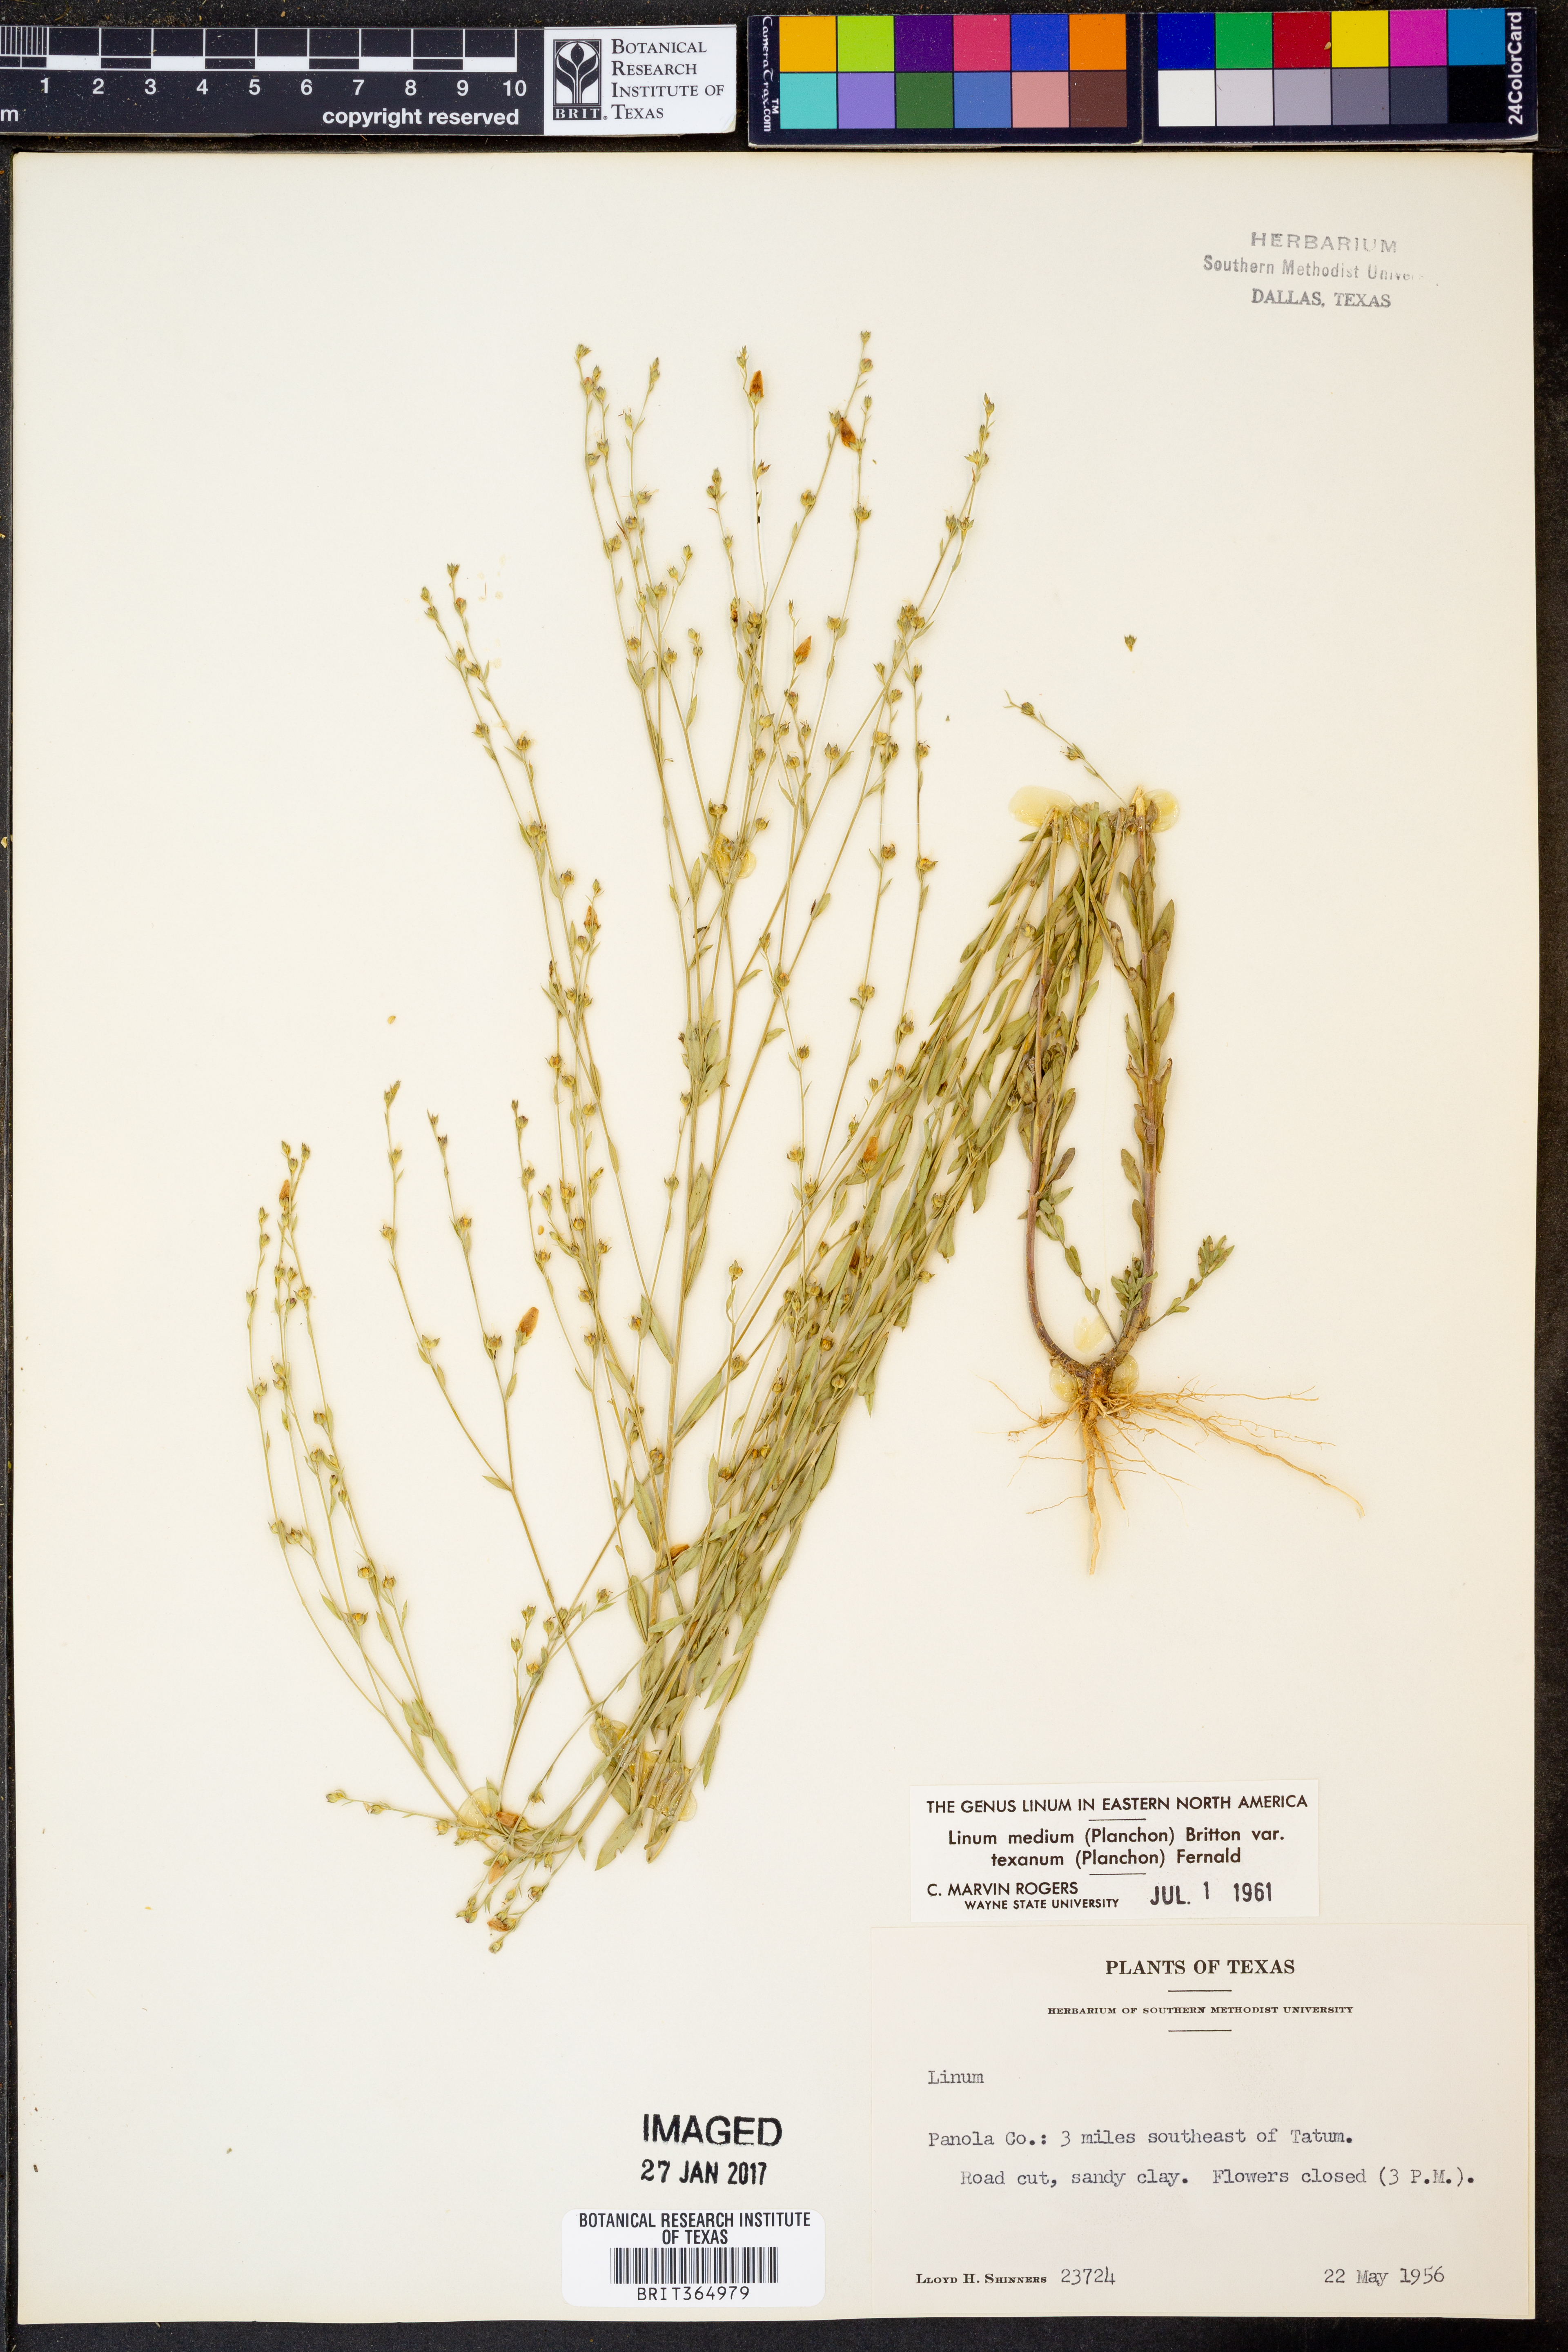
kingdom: Plantae
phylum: Tracheophyta
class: Magnoliopsida
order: Malpighiales
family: Linaceae
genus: Linum
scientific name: Linum medium
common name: Stiff yellow flax
